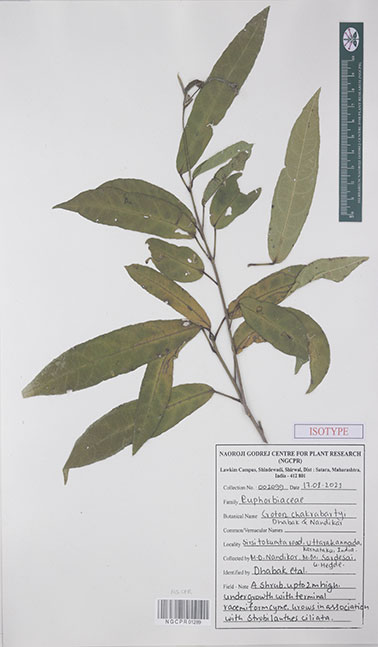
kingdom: Plantae
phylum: Tracheophyta
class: Magnoliopsida
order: Malpighiales
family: Euphorbiaceae
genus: Croton
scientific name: Croton chakrabartyi
